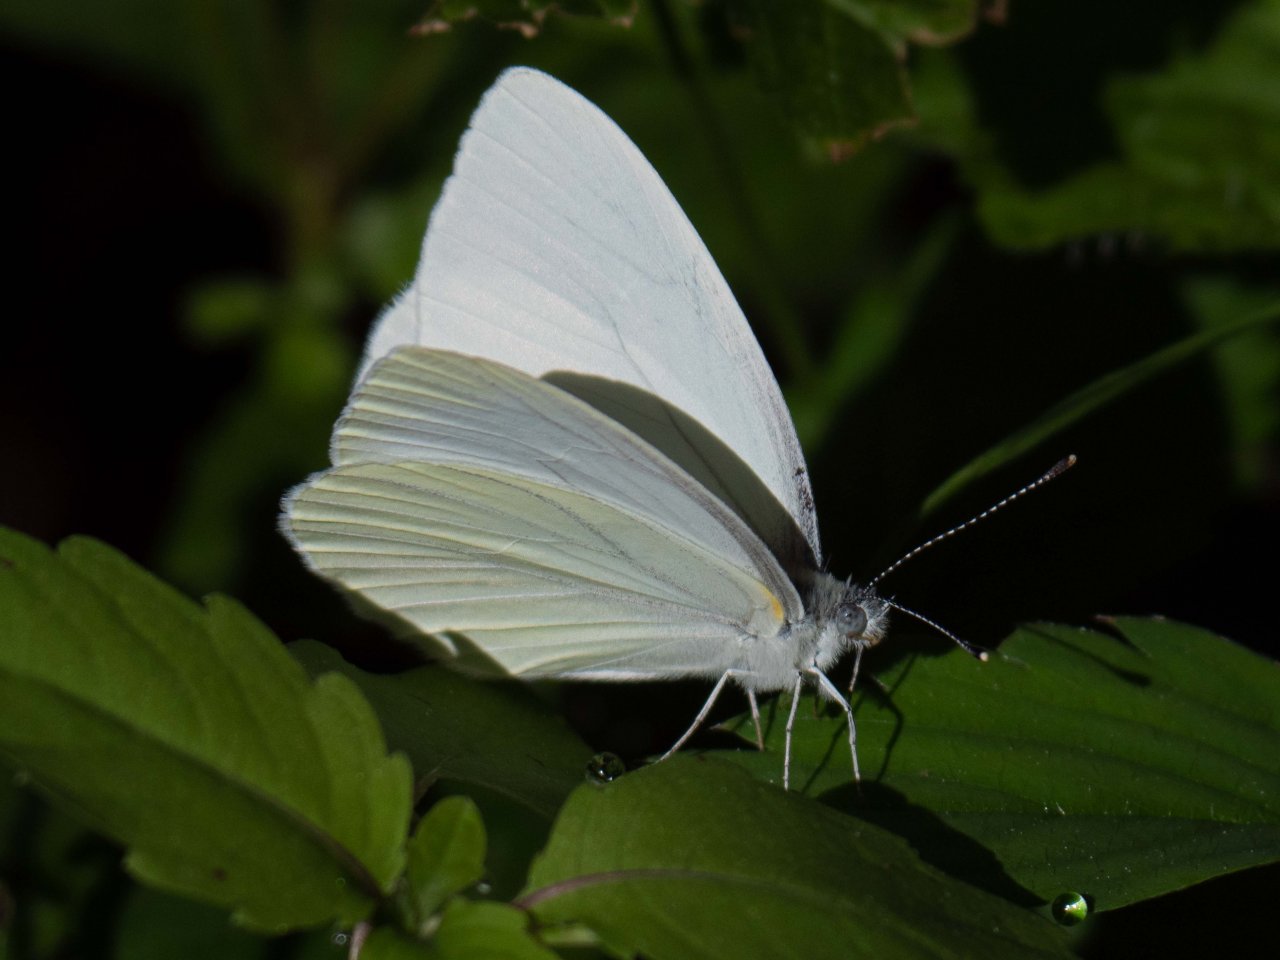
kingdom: Animalia
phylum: Arthropoda
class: Insecta
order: Lepidoptera
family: Pieridae
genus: Pieris
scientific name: Pieris oleracea
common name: Mustard White
